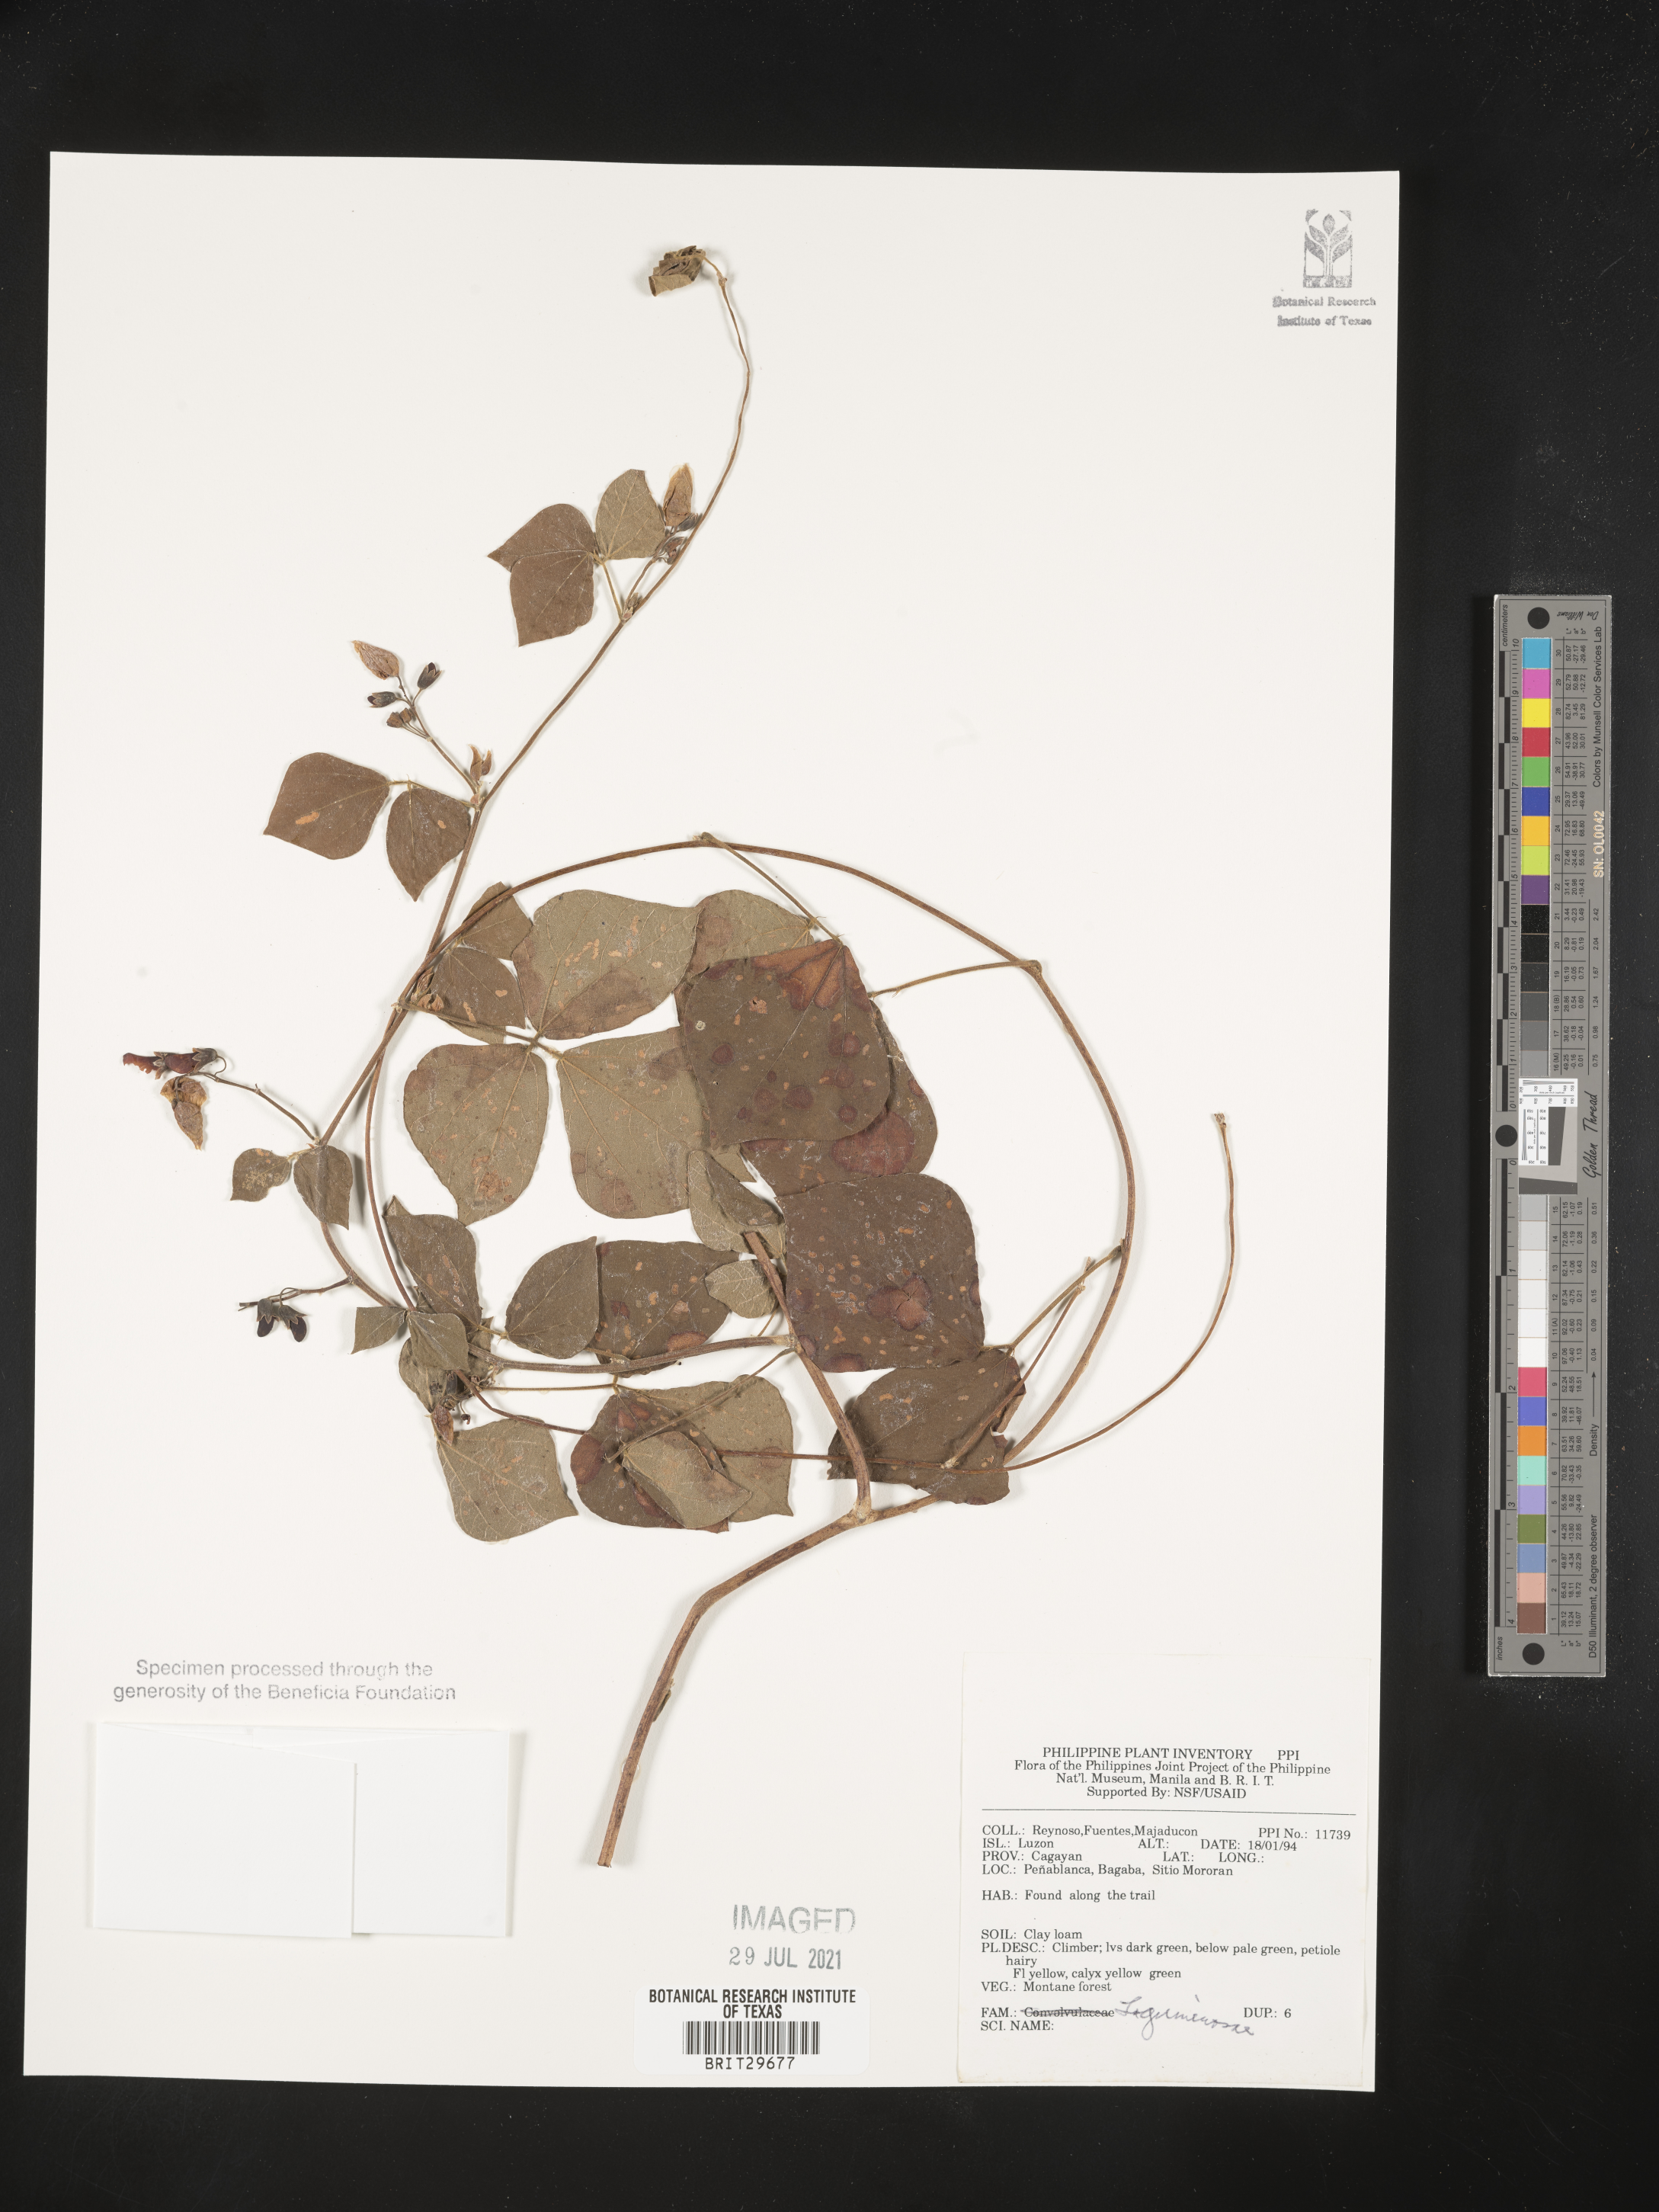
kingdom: Plantae
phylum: Tracheophyta
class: Magnoliopsida
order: Fabales
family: Fabaceae
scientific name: Fabaceae
